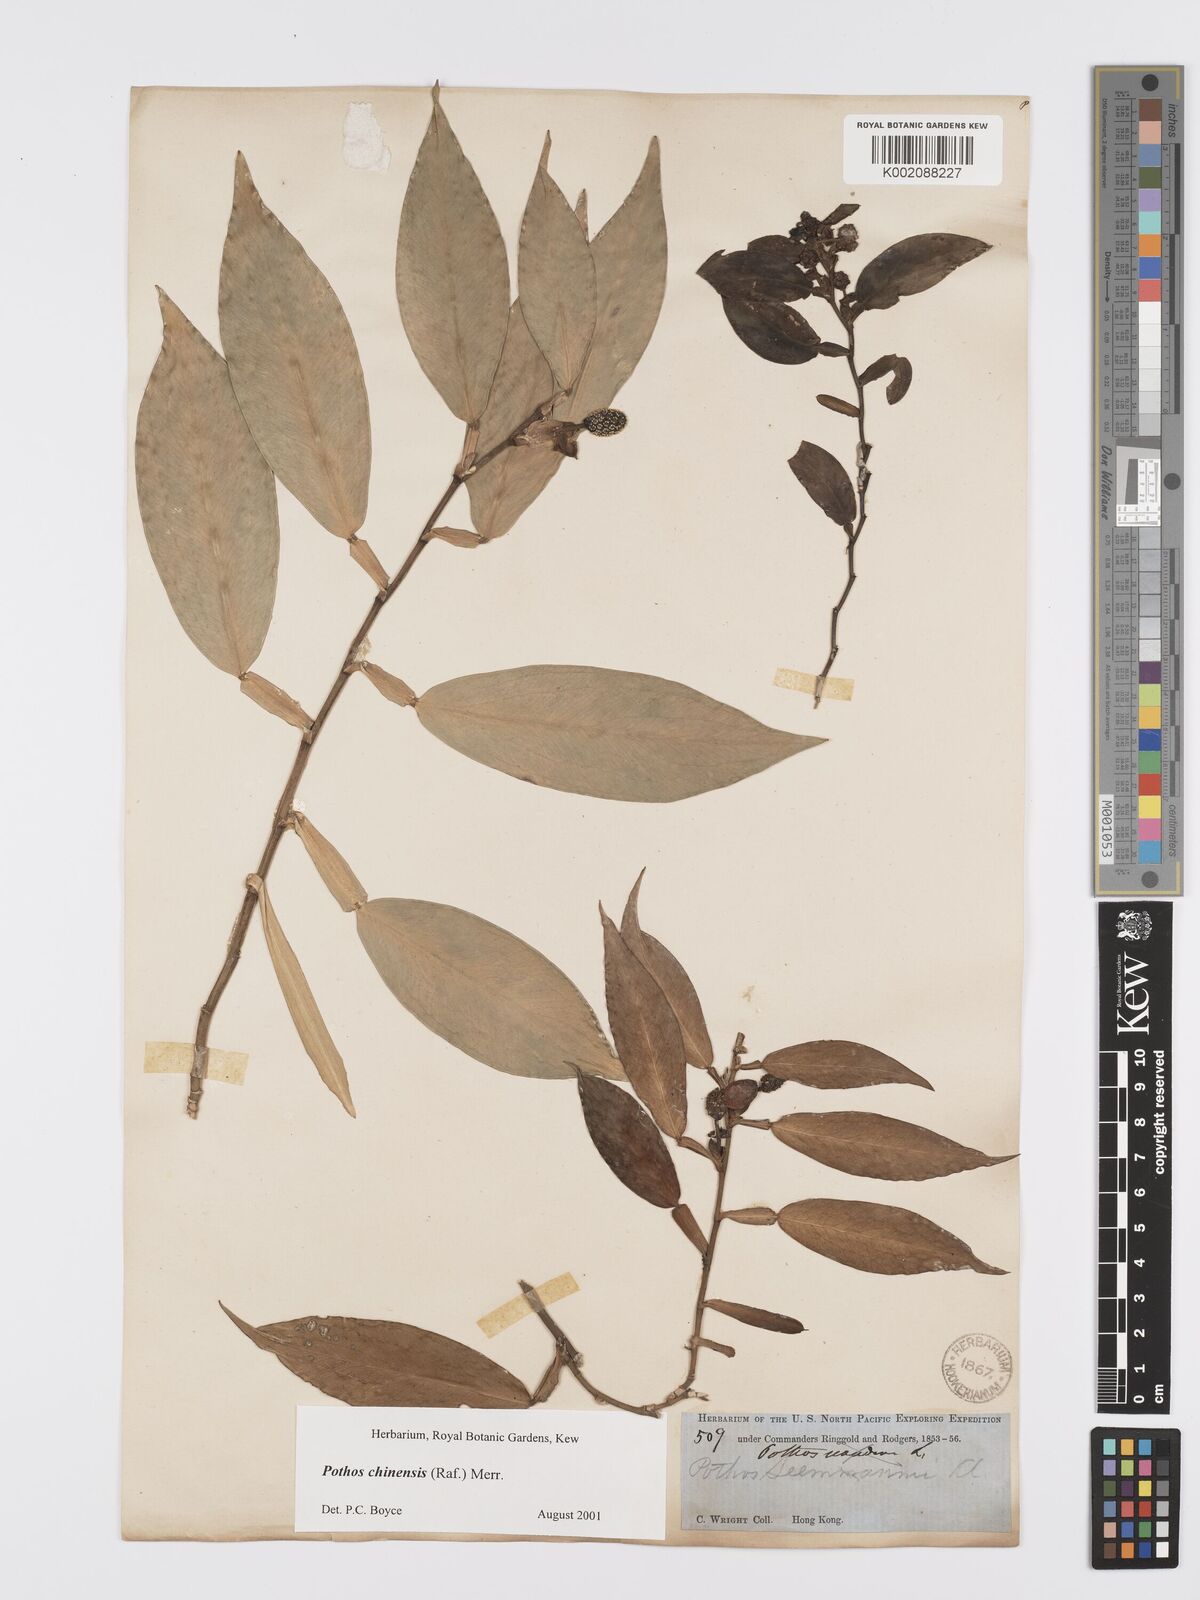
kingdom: Plantae
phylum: Tracheophyta
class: Liliopsida
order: Alismatales
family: Araceae
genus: Pothos
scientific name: Pothos chinensis
